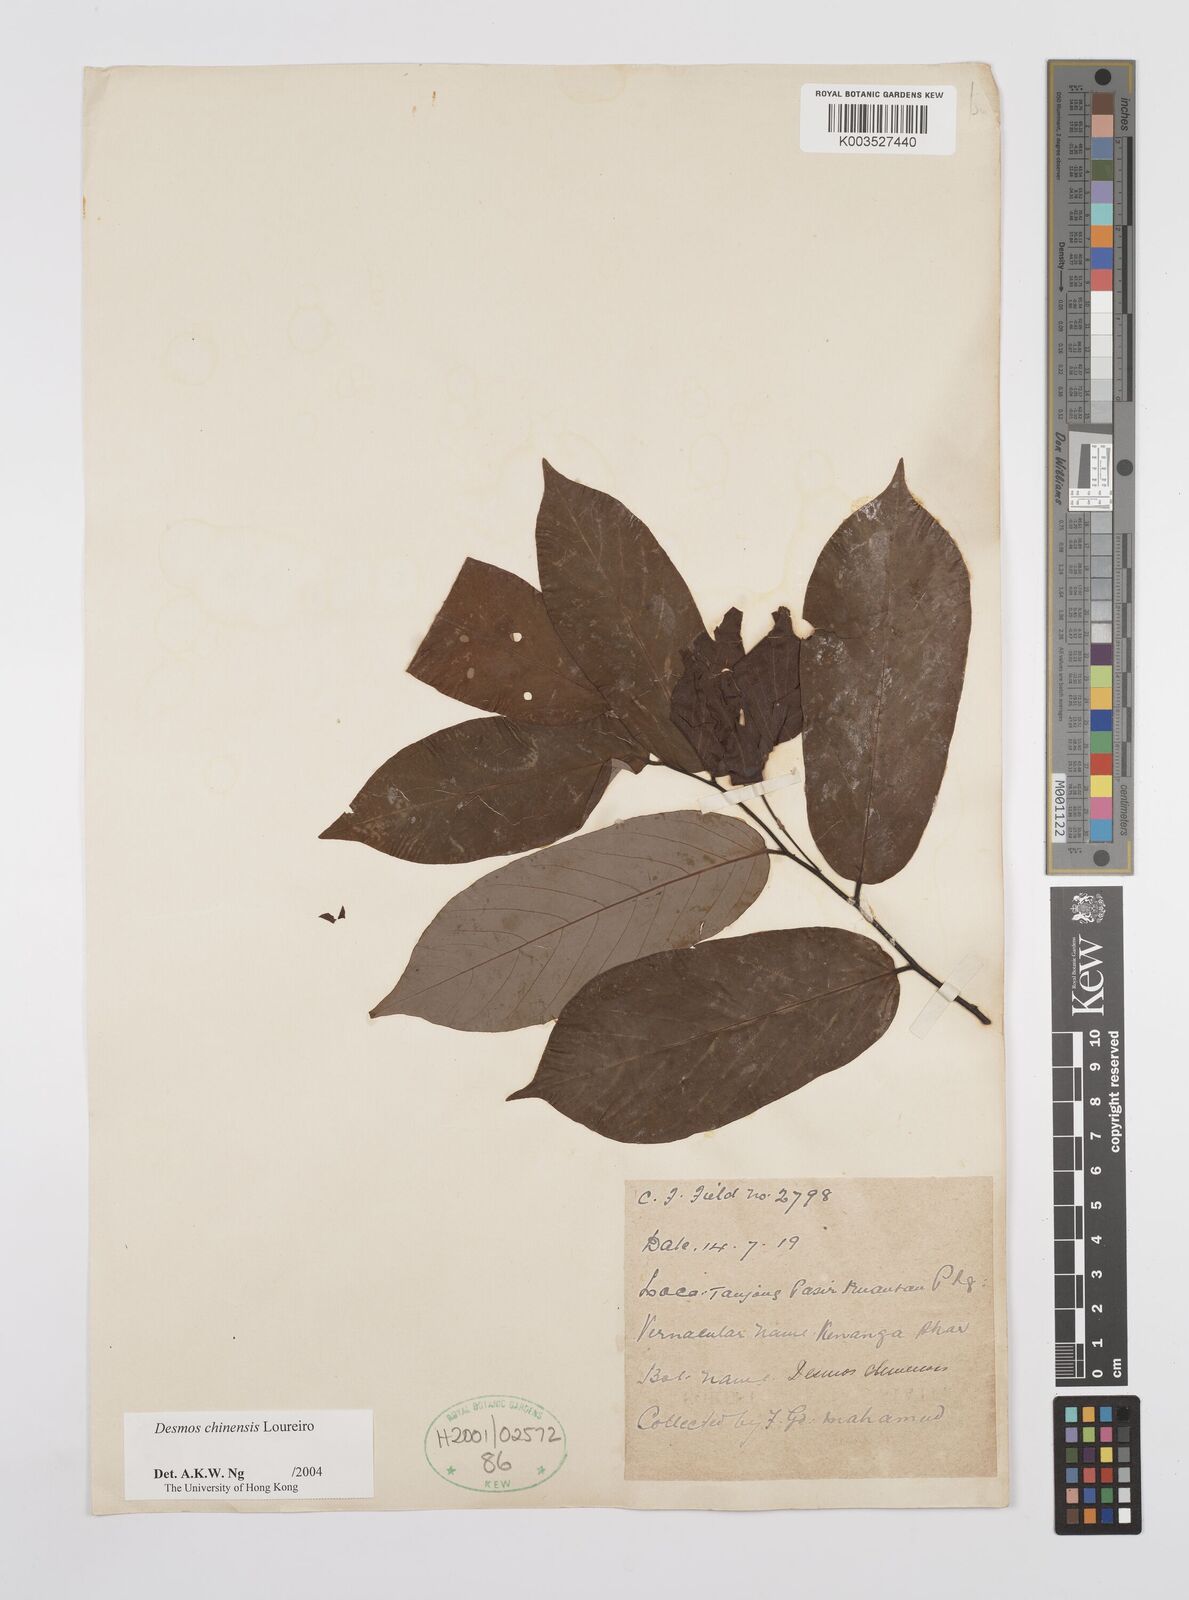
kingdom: Plantae
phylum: Tracheophyta
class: Magnoliopsida
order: Magnoliales
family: Annonaceae
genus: Desmos
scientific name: Desmos chinensis
